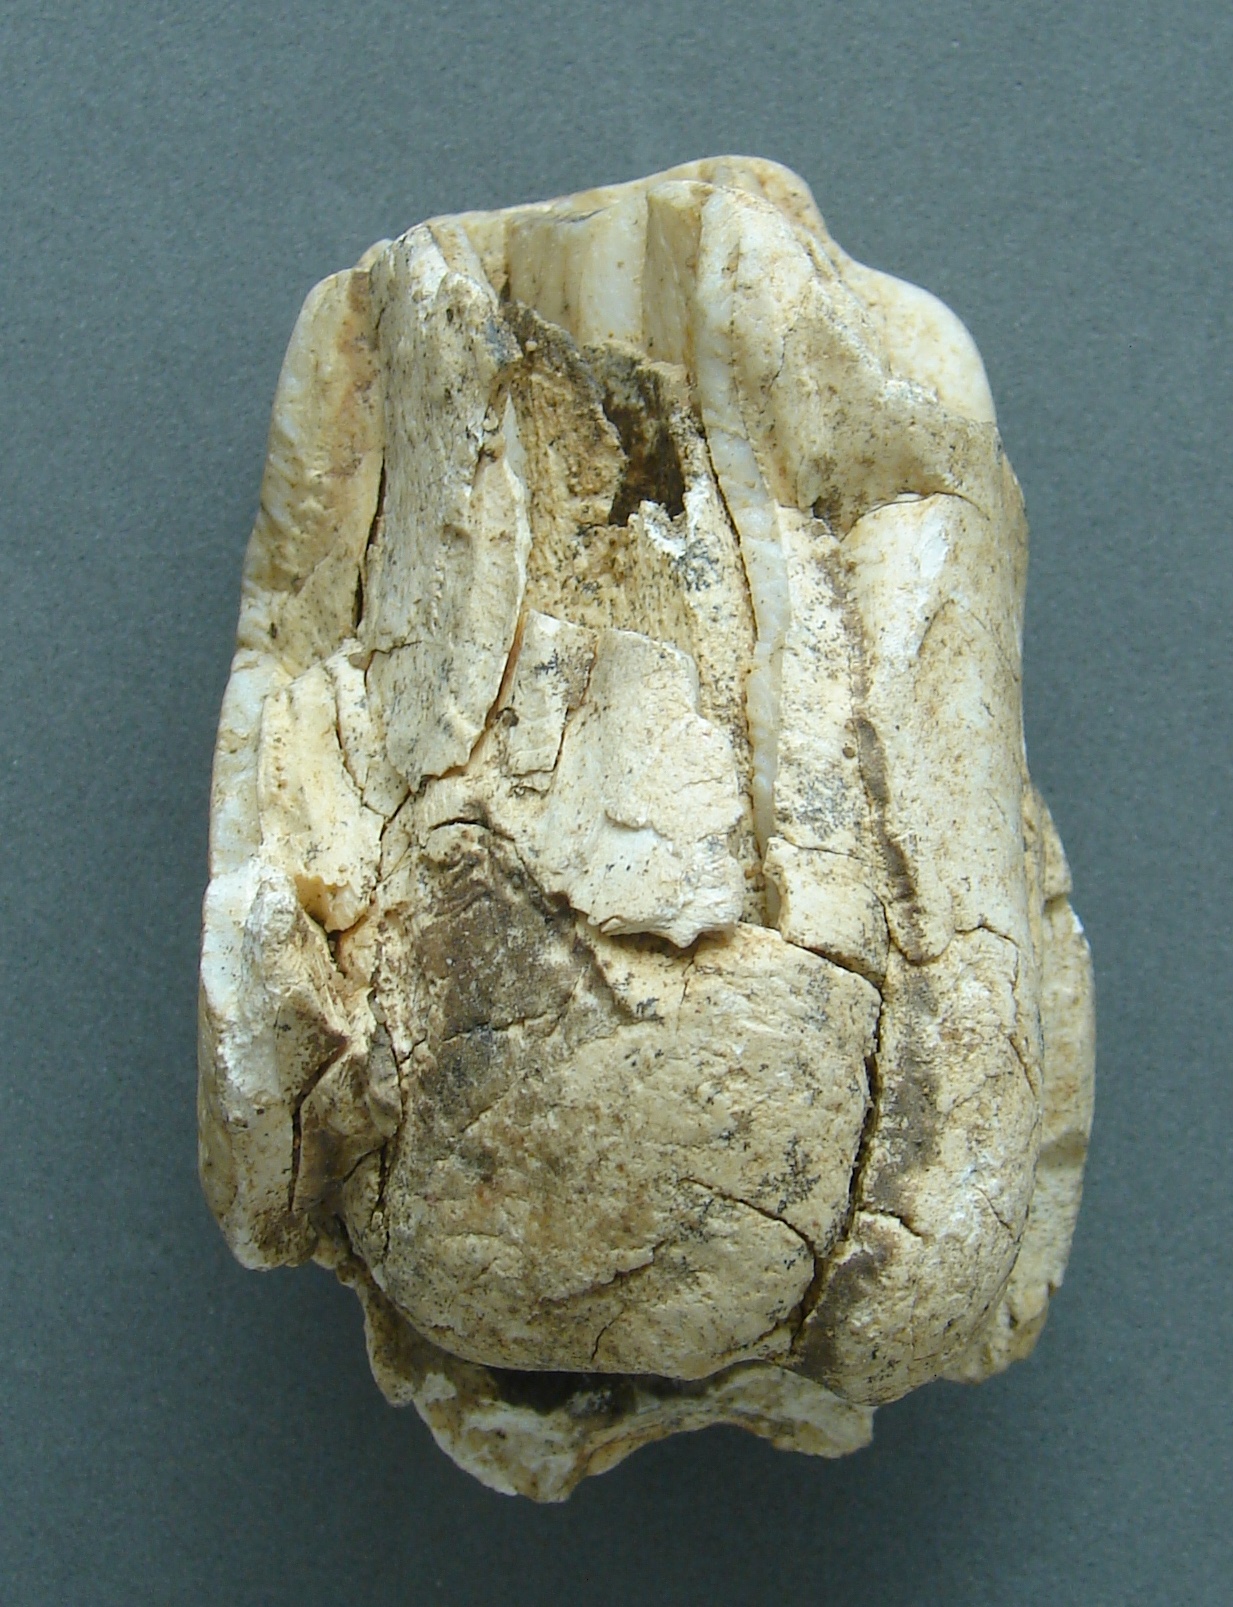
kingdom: Animalia
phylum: Chordata
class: Mammalia
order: Perissodactyla
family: Rhinocerotidae
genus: Rhinoceros
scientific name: Rhinoceros
